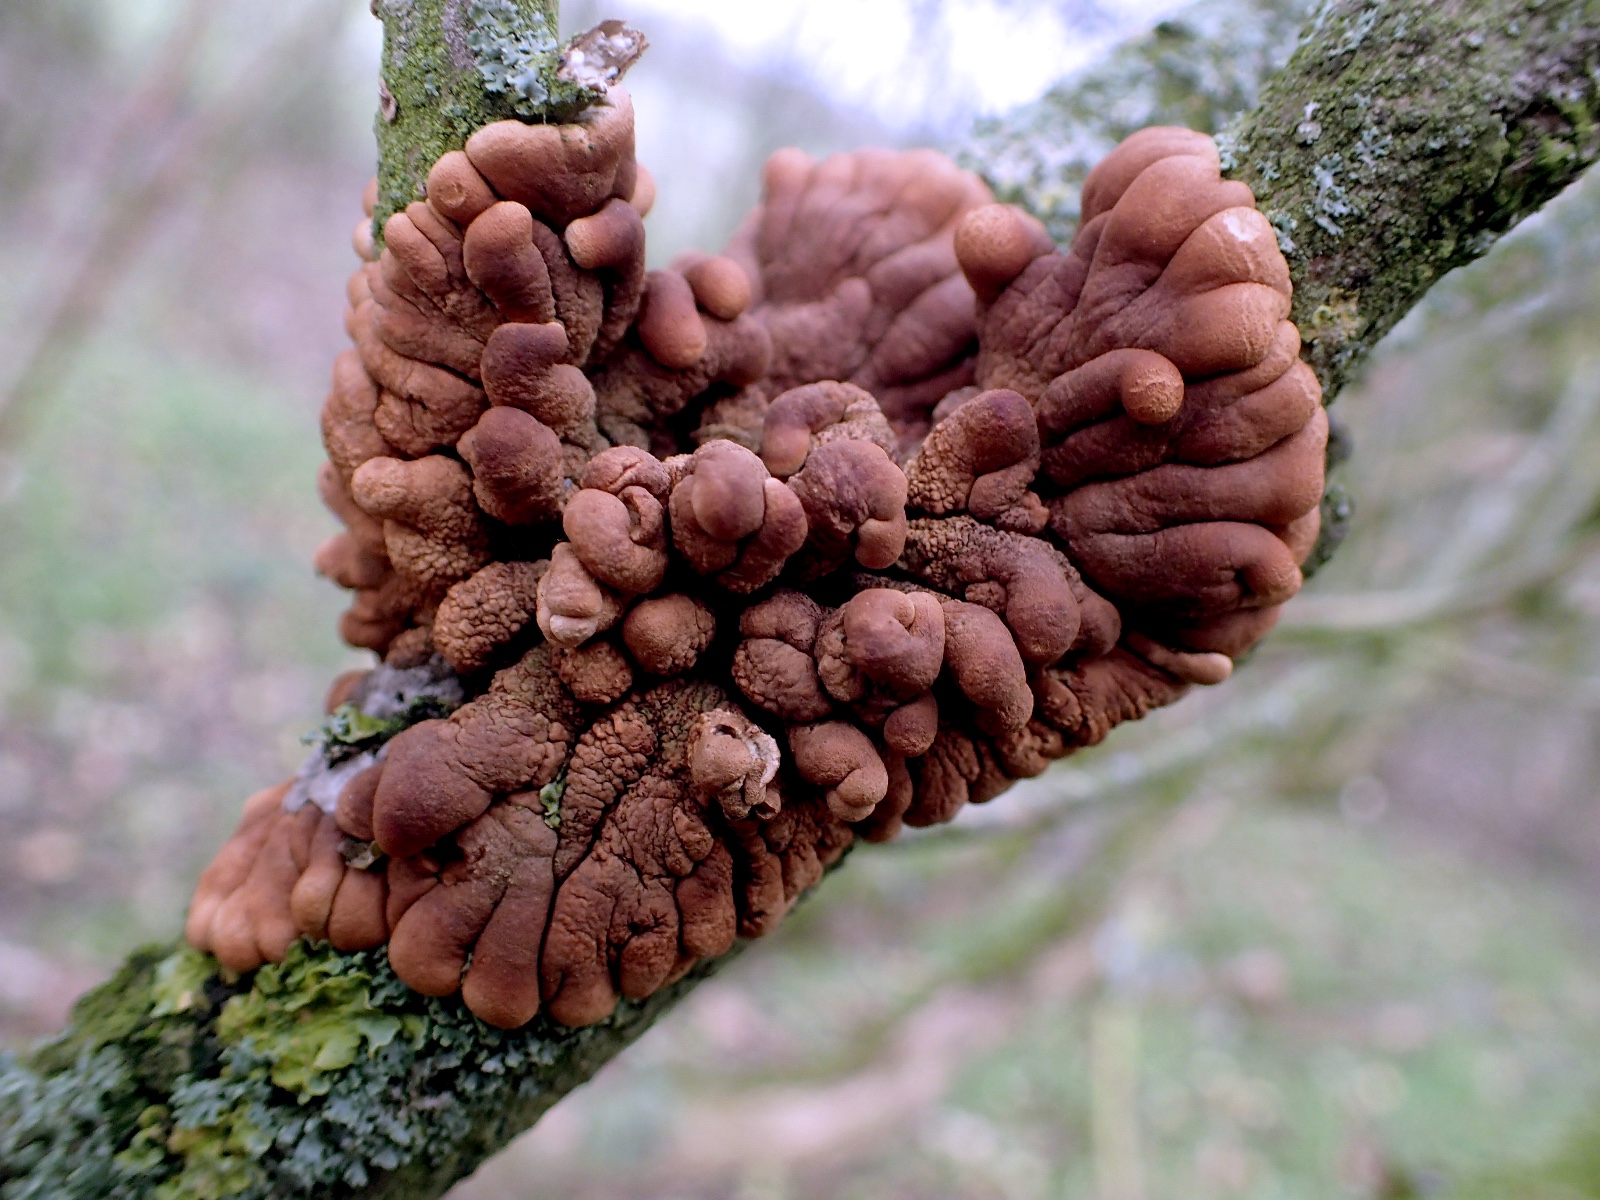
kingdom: Fungi
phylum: Ascomycota
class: Sordariomycetes
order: Hypocreales
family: Hypocreaceae
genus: Hypocreopsis
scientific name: Hypocreopsis lichenoides
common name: pilfinger
